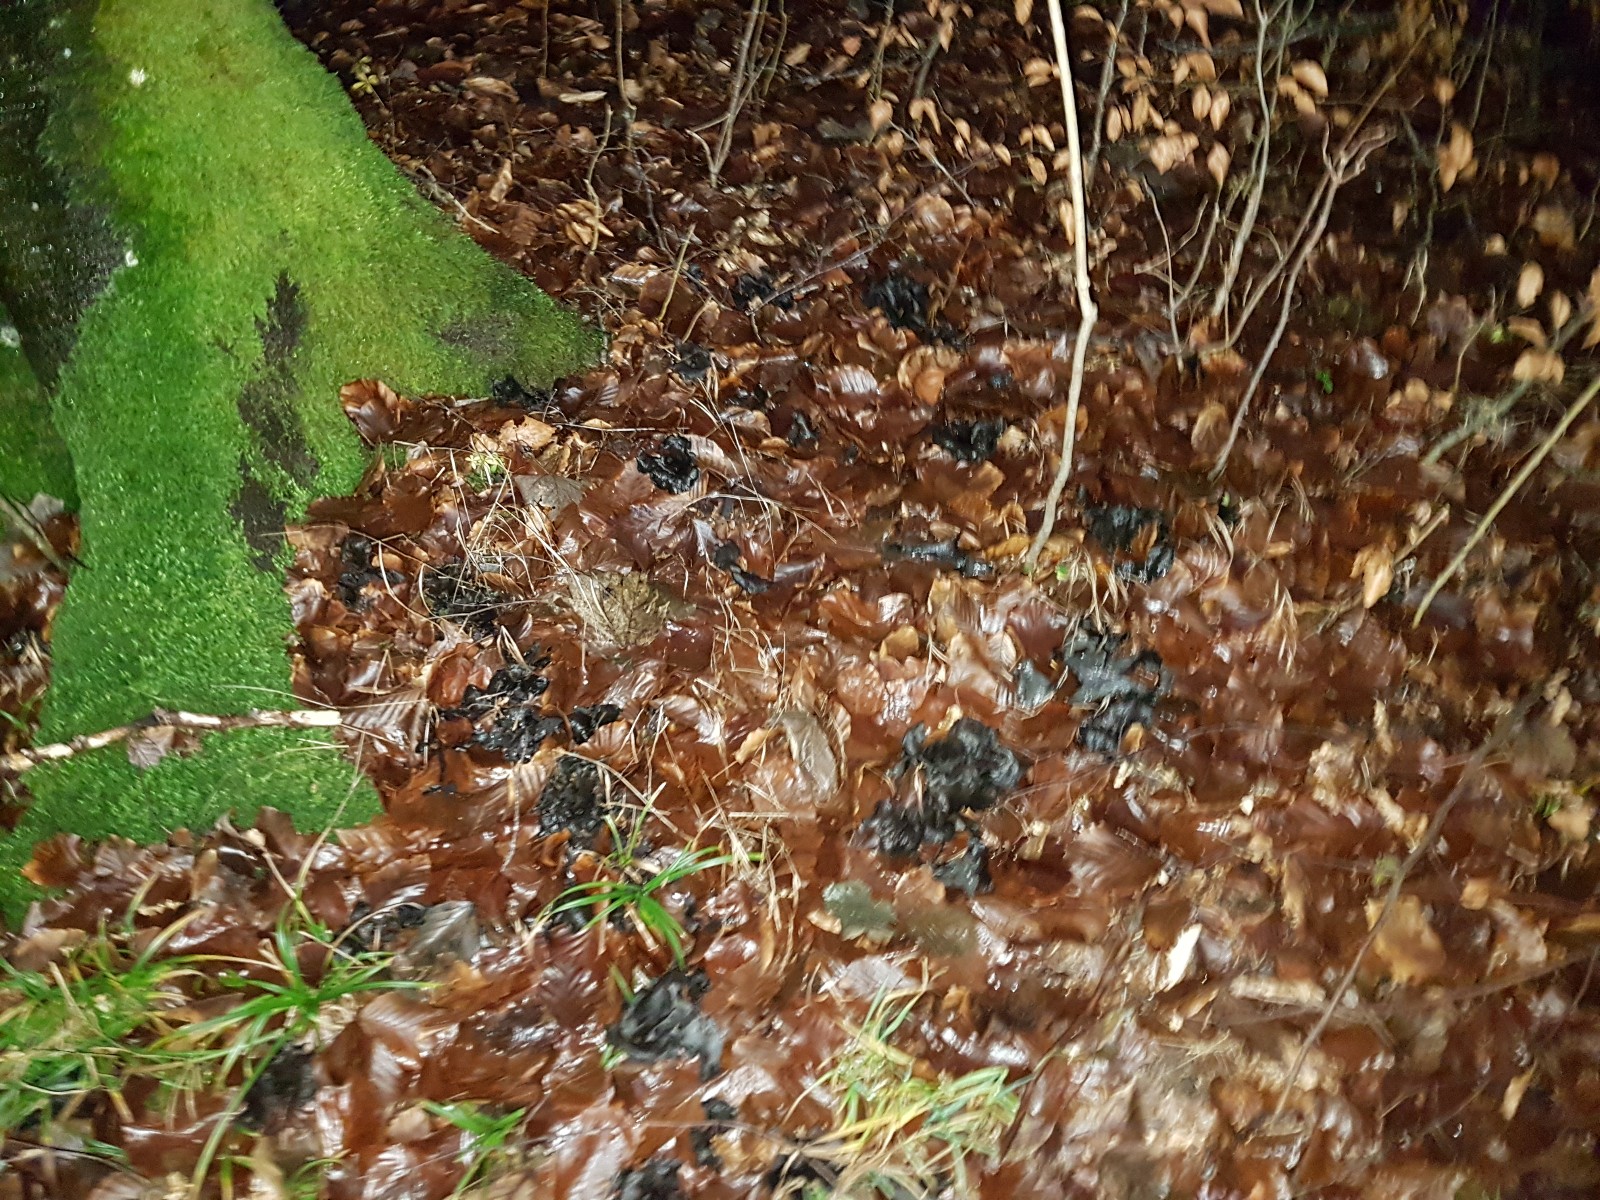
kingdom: Fungi
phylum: Basidiomycota
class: Agaricomycetes
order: Cantharellales
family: Hydnaceae
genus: Craterellus
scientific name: Craterellus cornucopioides
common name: trompetsvamp
